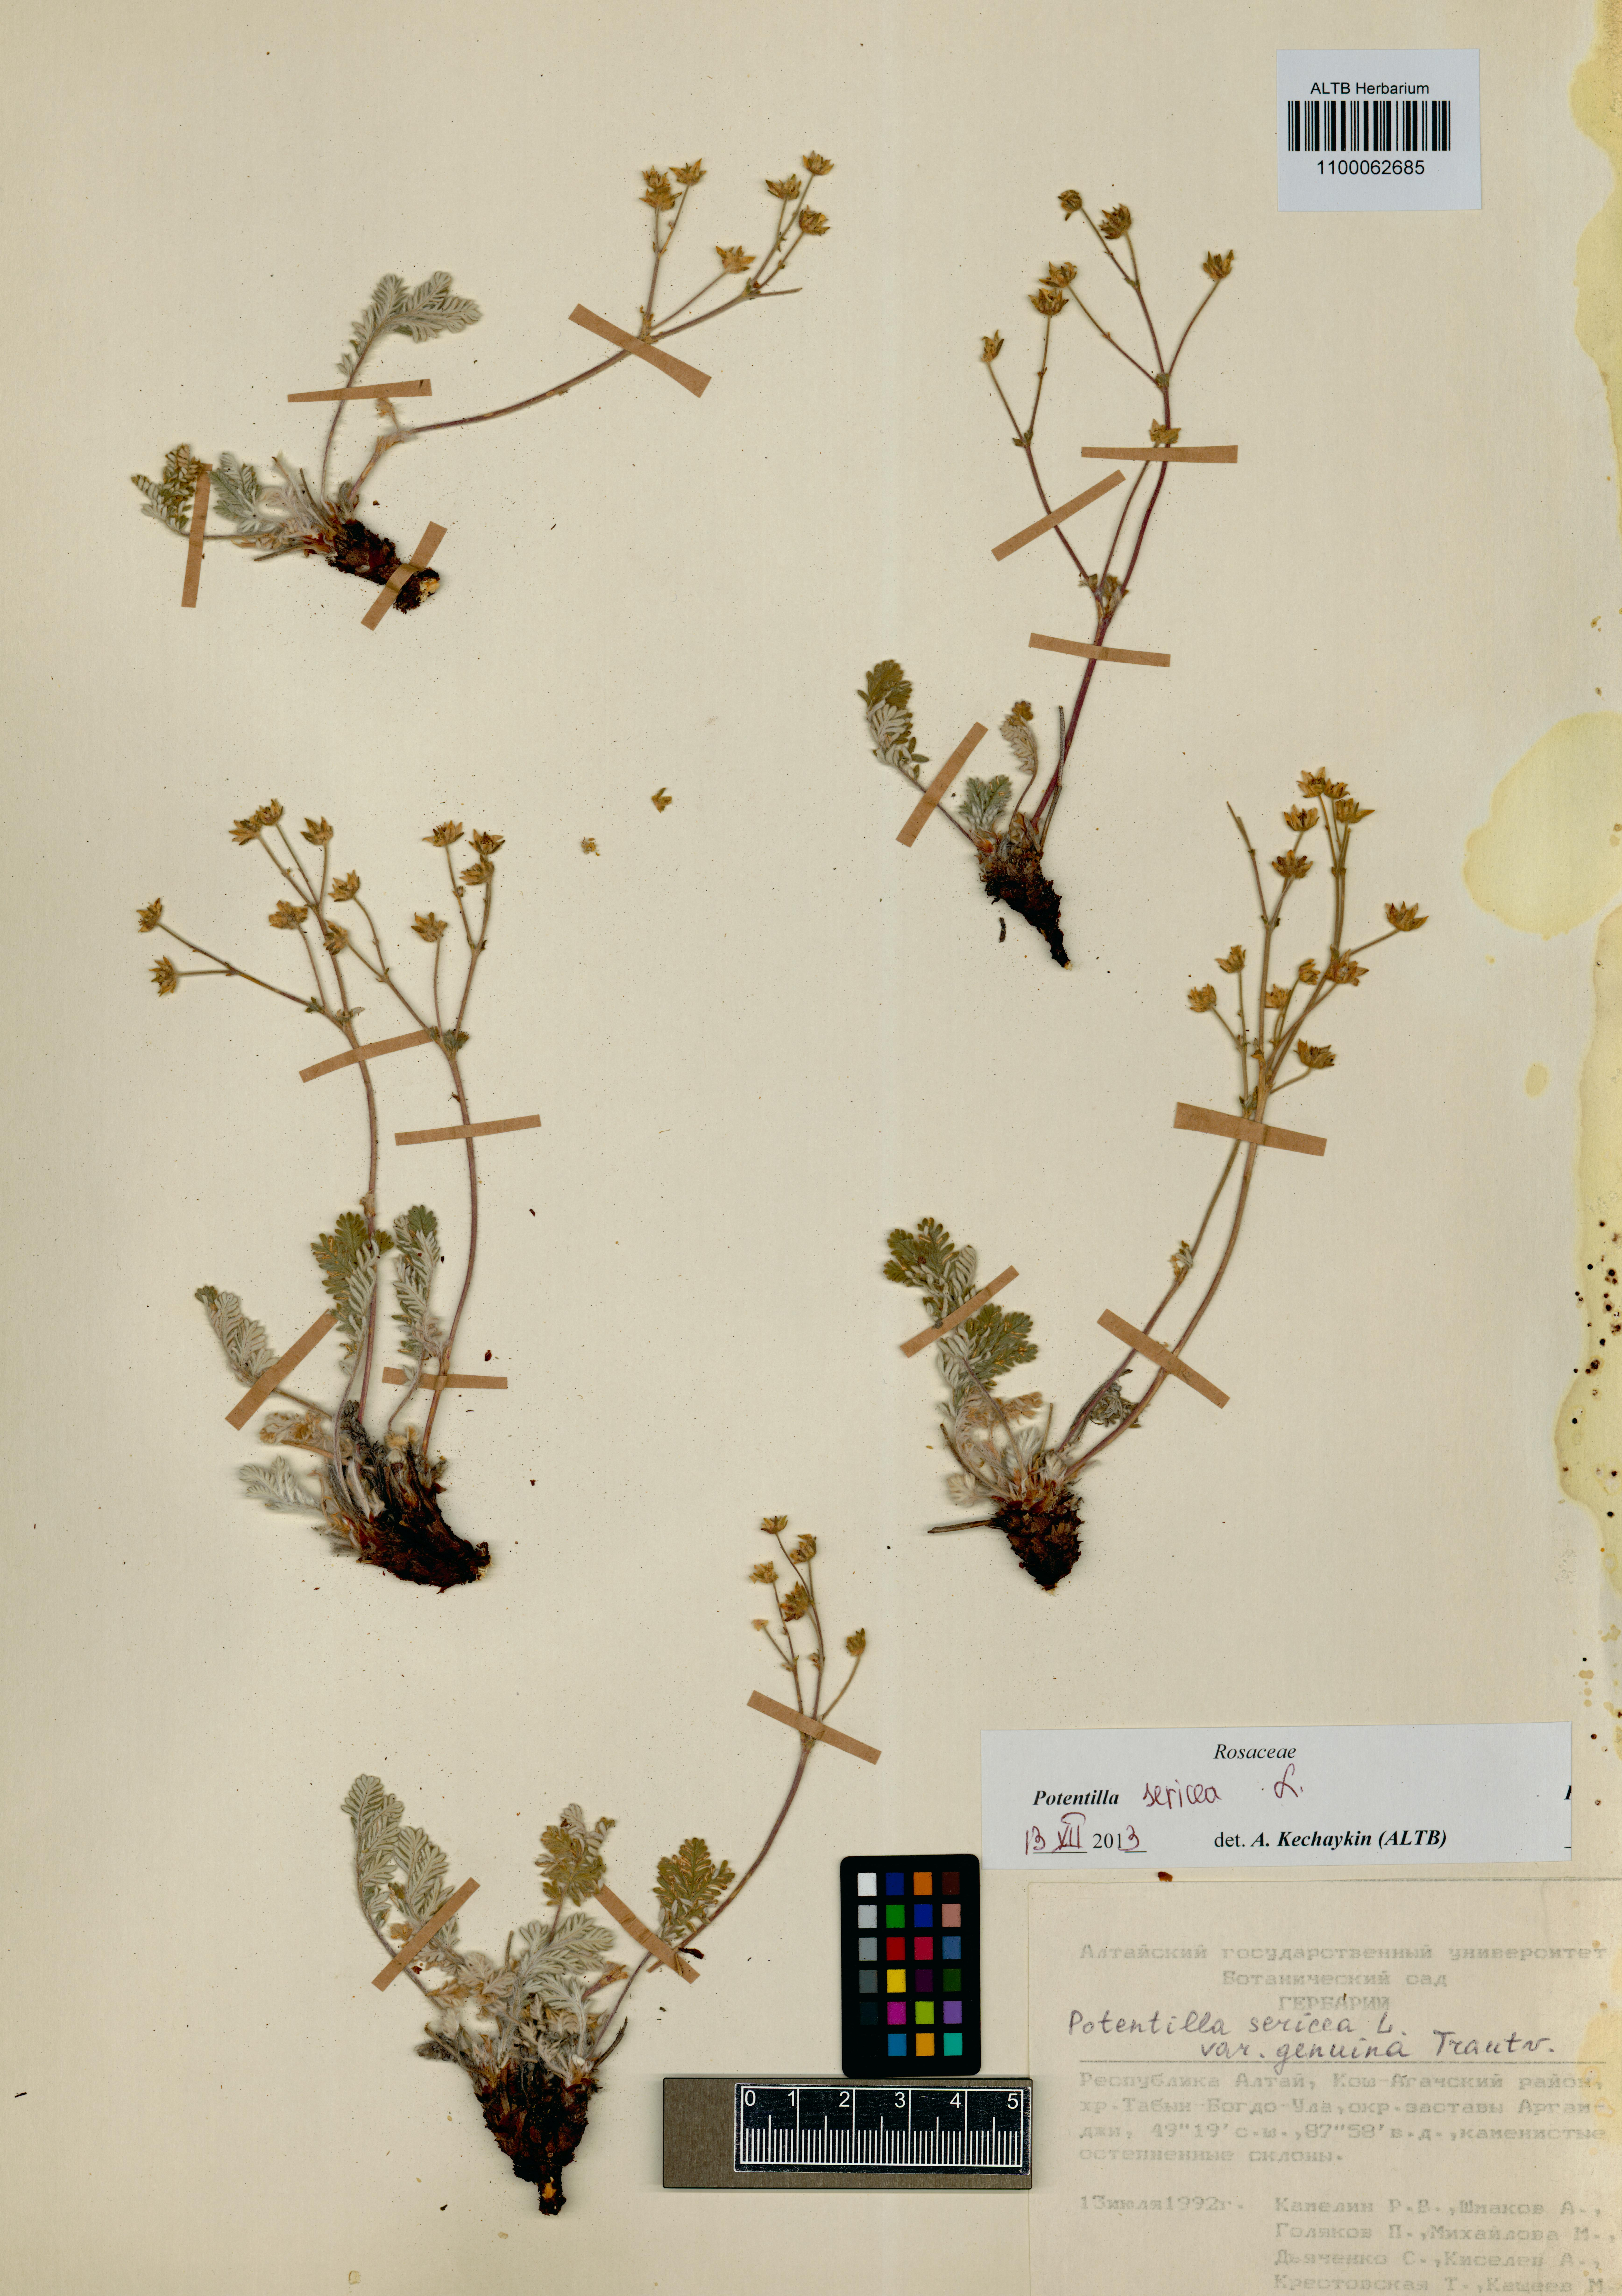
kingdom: Plantae
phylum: Tracheophyta
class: Magnoliopsida
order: Rosales
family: Rosaceae
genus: Potentilla
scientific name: Potentilla sericea
